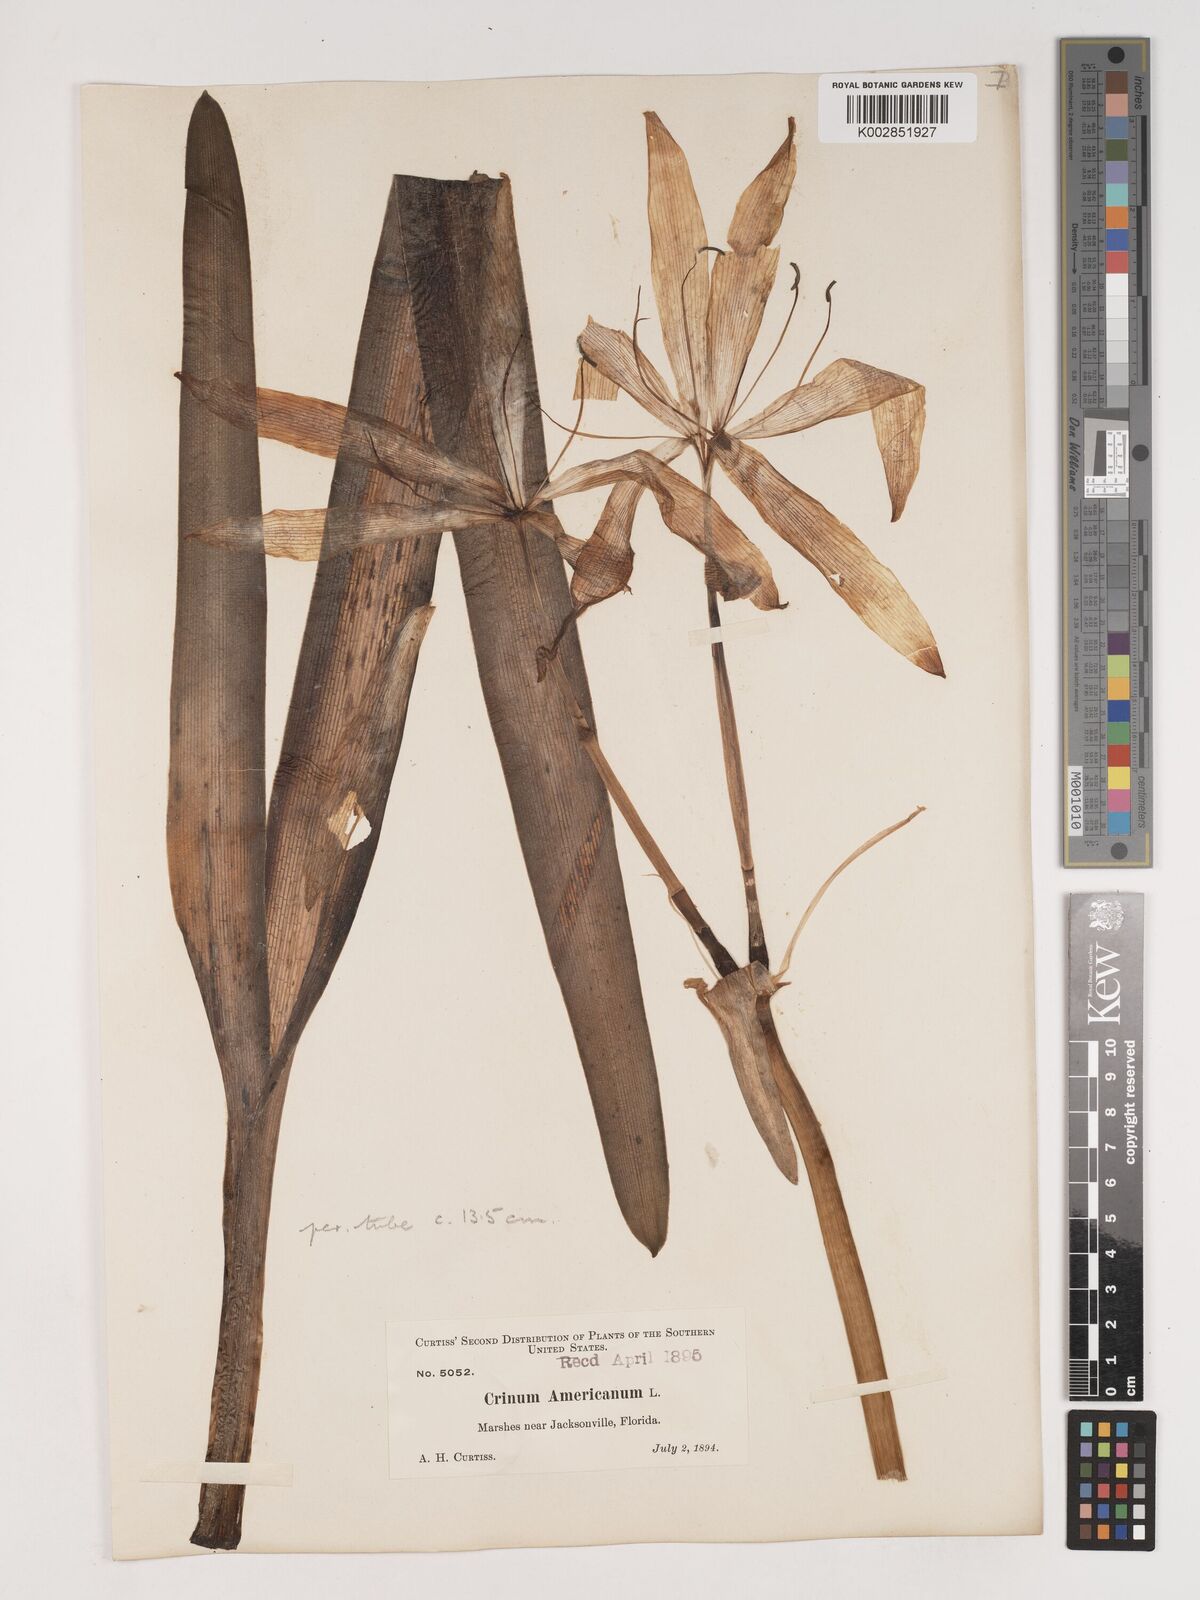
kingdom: Plantae
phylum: Tracheophyta
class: Liliopsida
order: Asparagales
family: Amaryllidaceae
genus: Crinum
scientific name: Crinum americanum
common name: Florida swamp-lily
